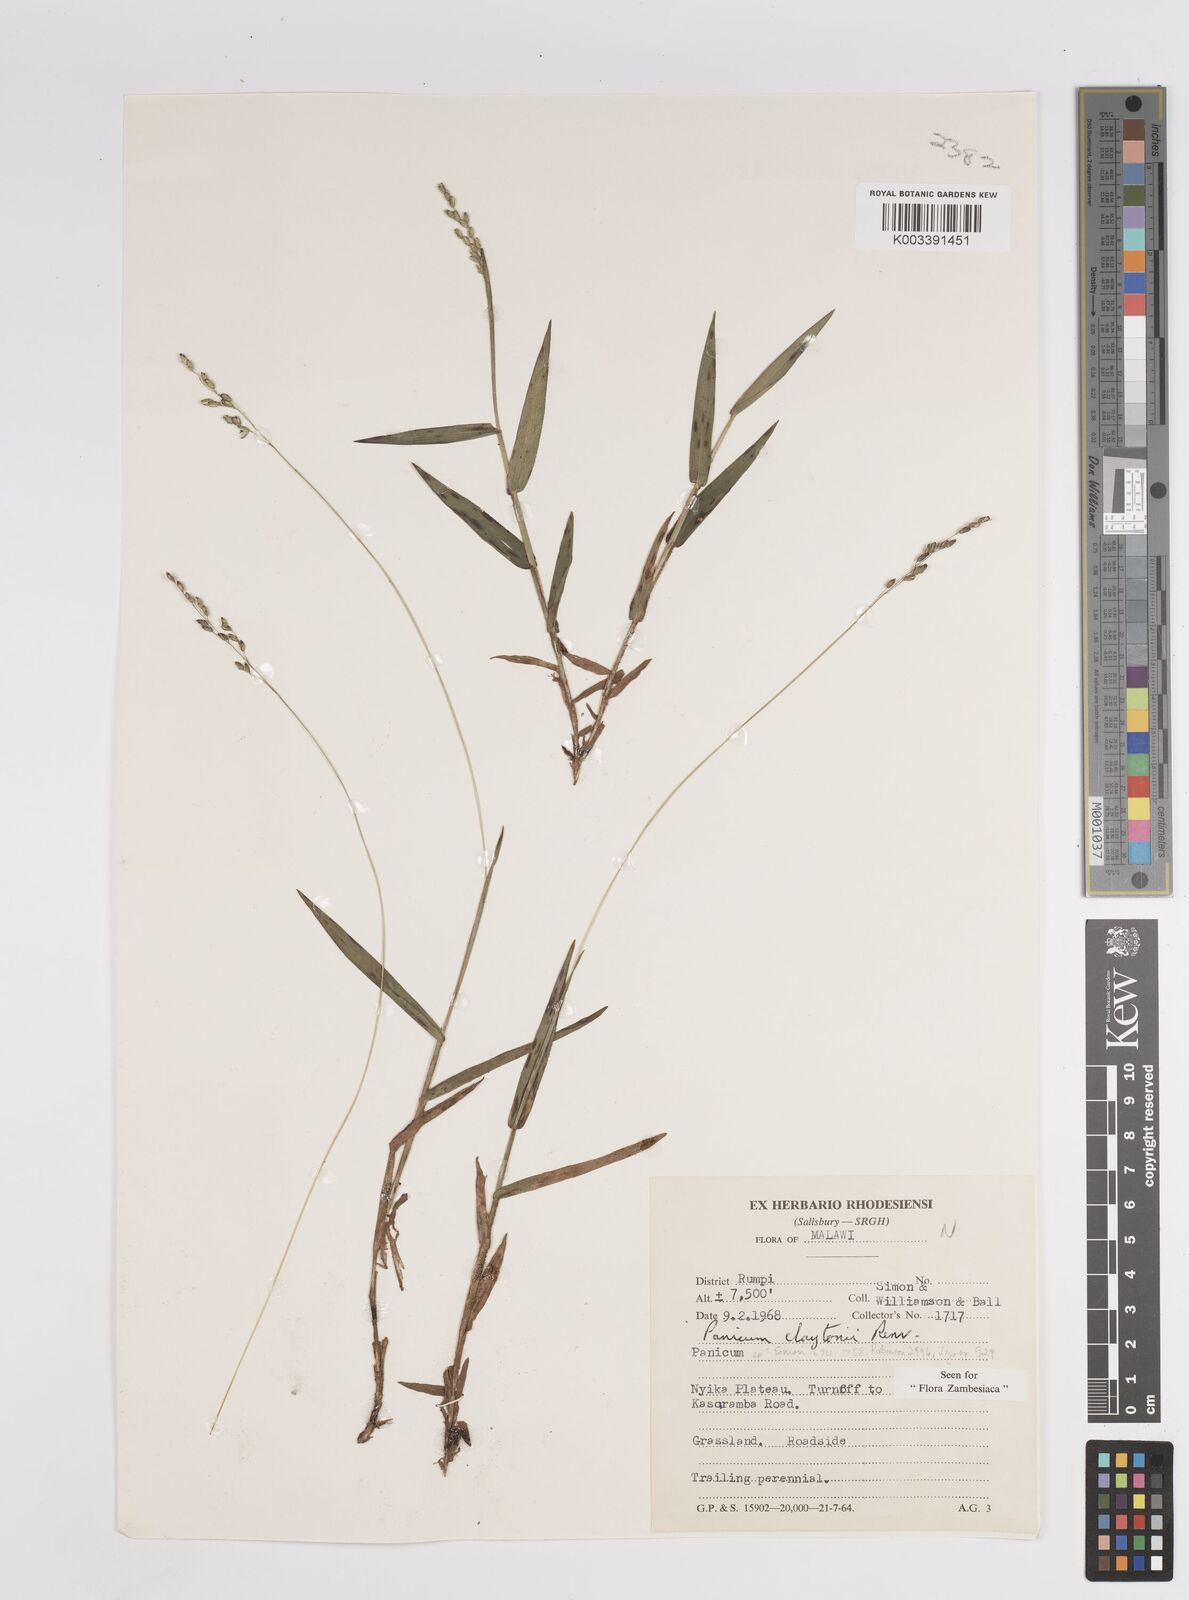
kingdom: Plantae
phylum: Tracheophyta
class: Liliopsida
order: Poales
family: Poaceae
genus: Adenochloa
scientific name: Adenochloa claytonii
